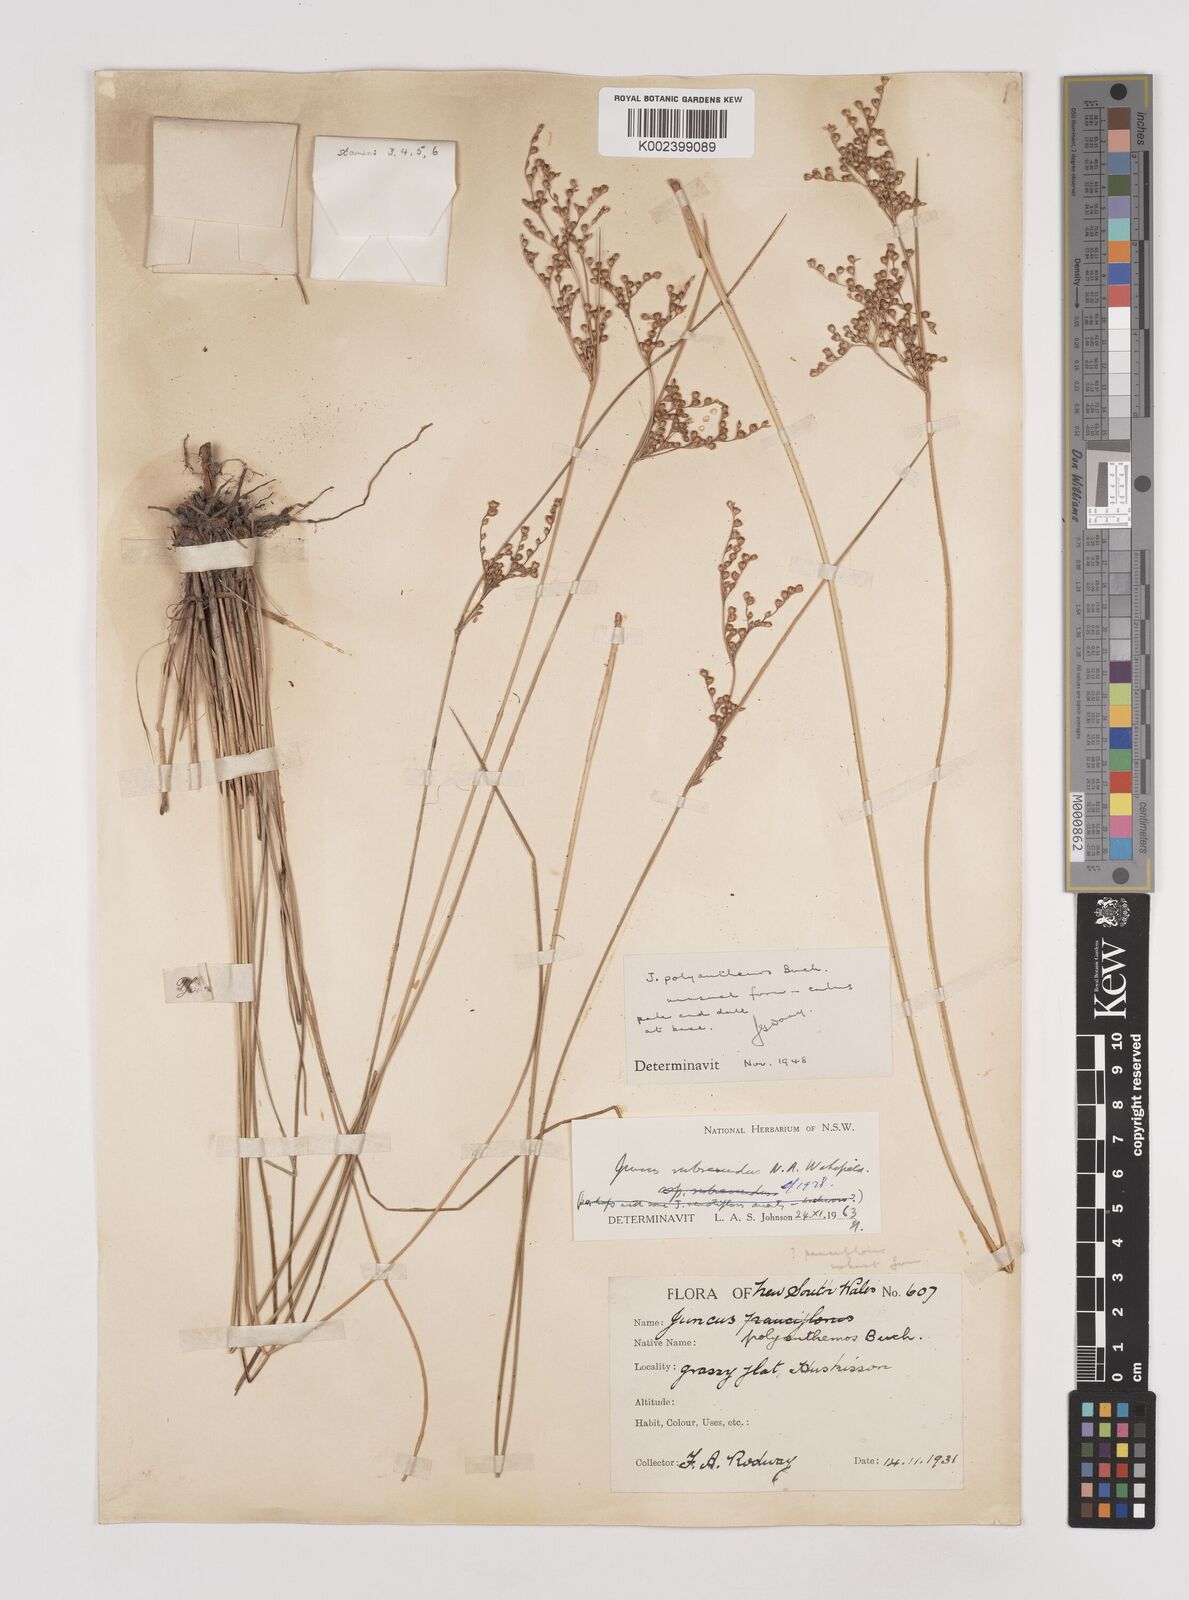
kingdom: Plantae
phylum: Tracheophyta
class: Liliopsida
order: Poales
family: Juncaceae
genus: Juncus
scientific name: Juncus subsecundus
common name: Fingered rush
